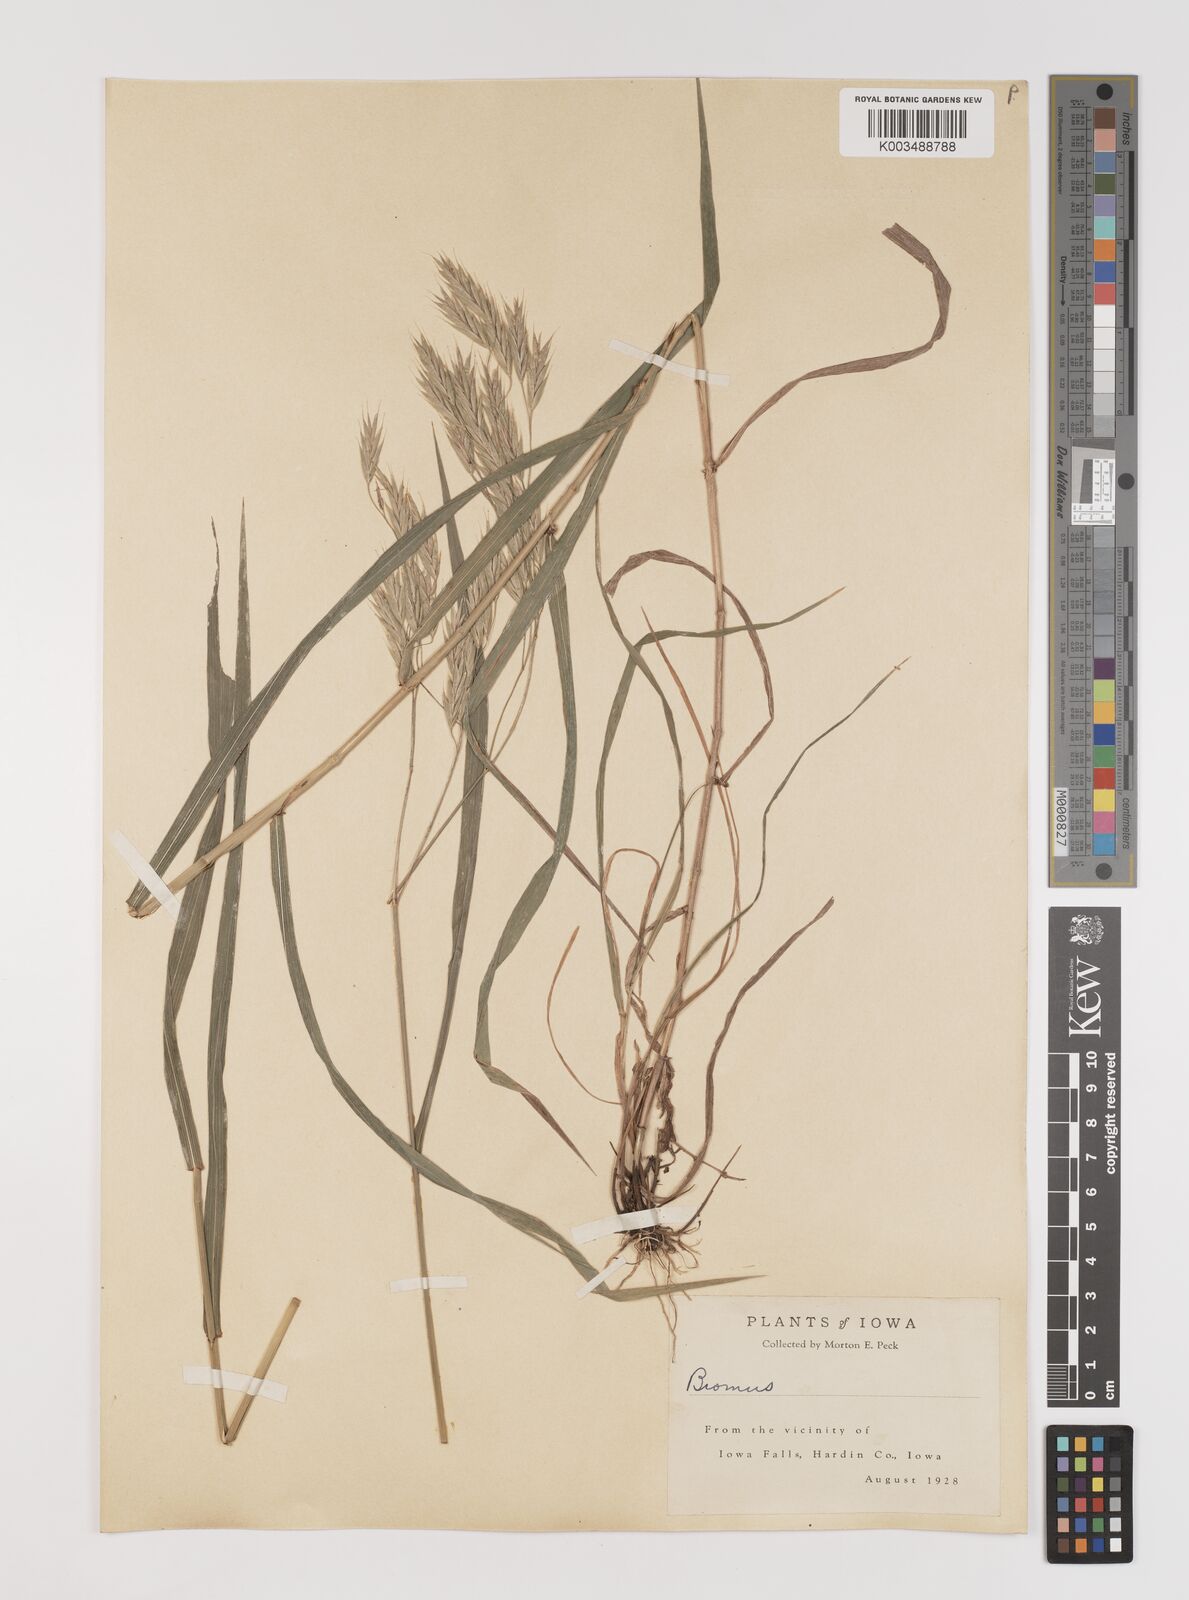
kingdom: Plantae
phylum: Tracheophyta
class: Liliopsida
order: Poales
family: Poaceae
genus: Bromus
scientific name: Bromus
